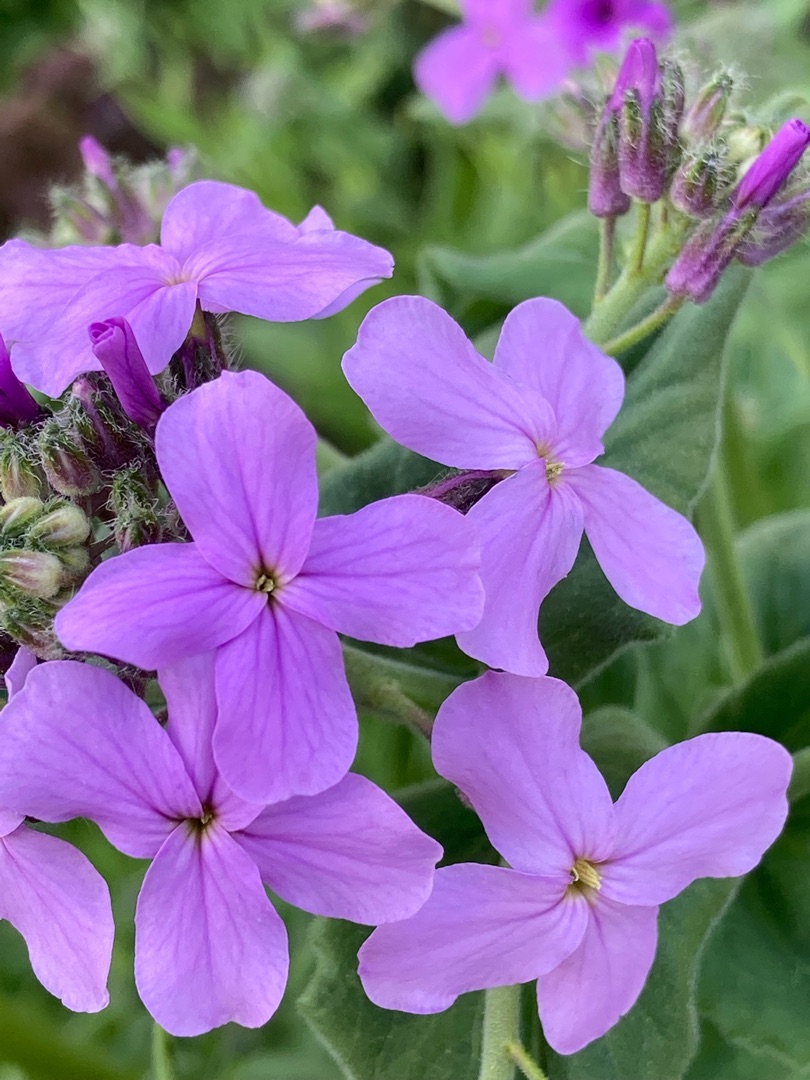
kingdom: Plantae
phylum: Tracheophyta
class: Magnoliopsida
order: Brassicales
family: Brassicaceae
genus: Hesperis
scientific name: Hesperis matronalis
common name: Aftenstjerne
